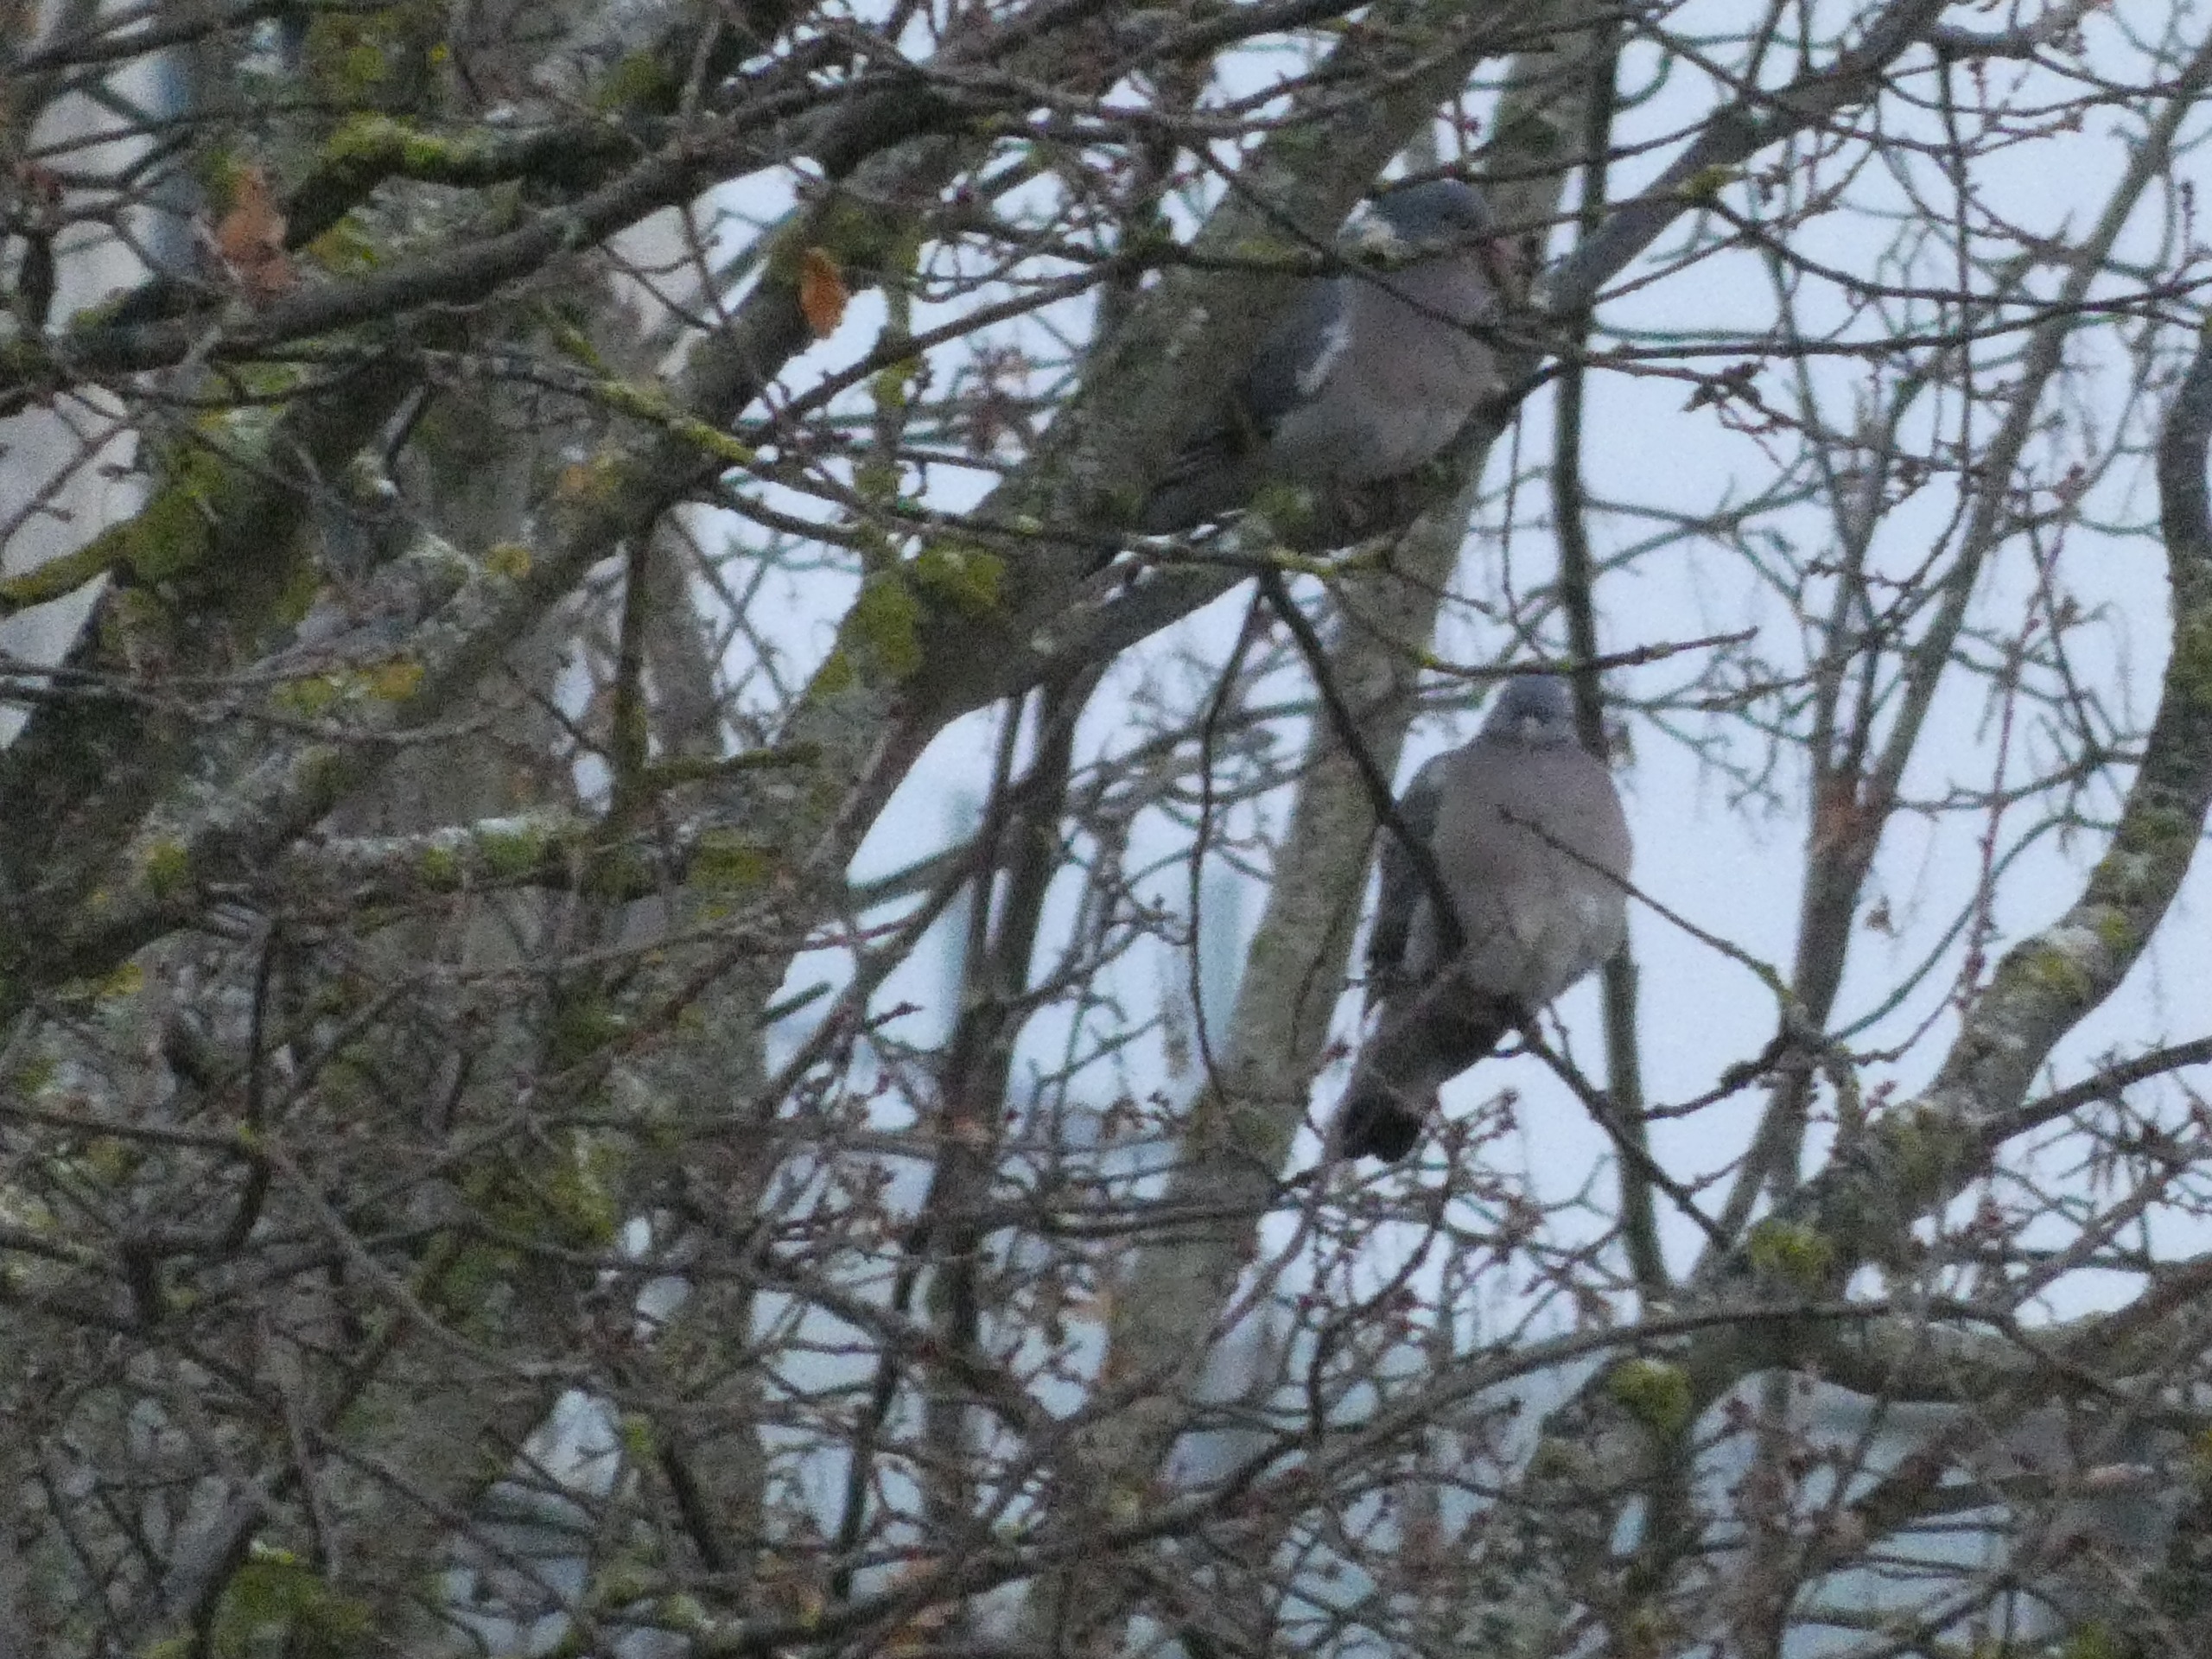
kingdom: Animalia
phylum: Chordata
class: Aves
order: Columbiformes
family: Columbidae
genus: Columba
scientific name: Columba palumbus
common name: Ringdue
